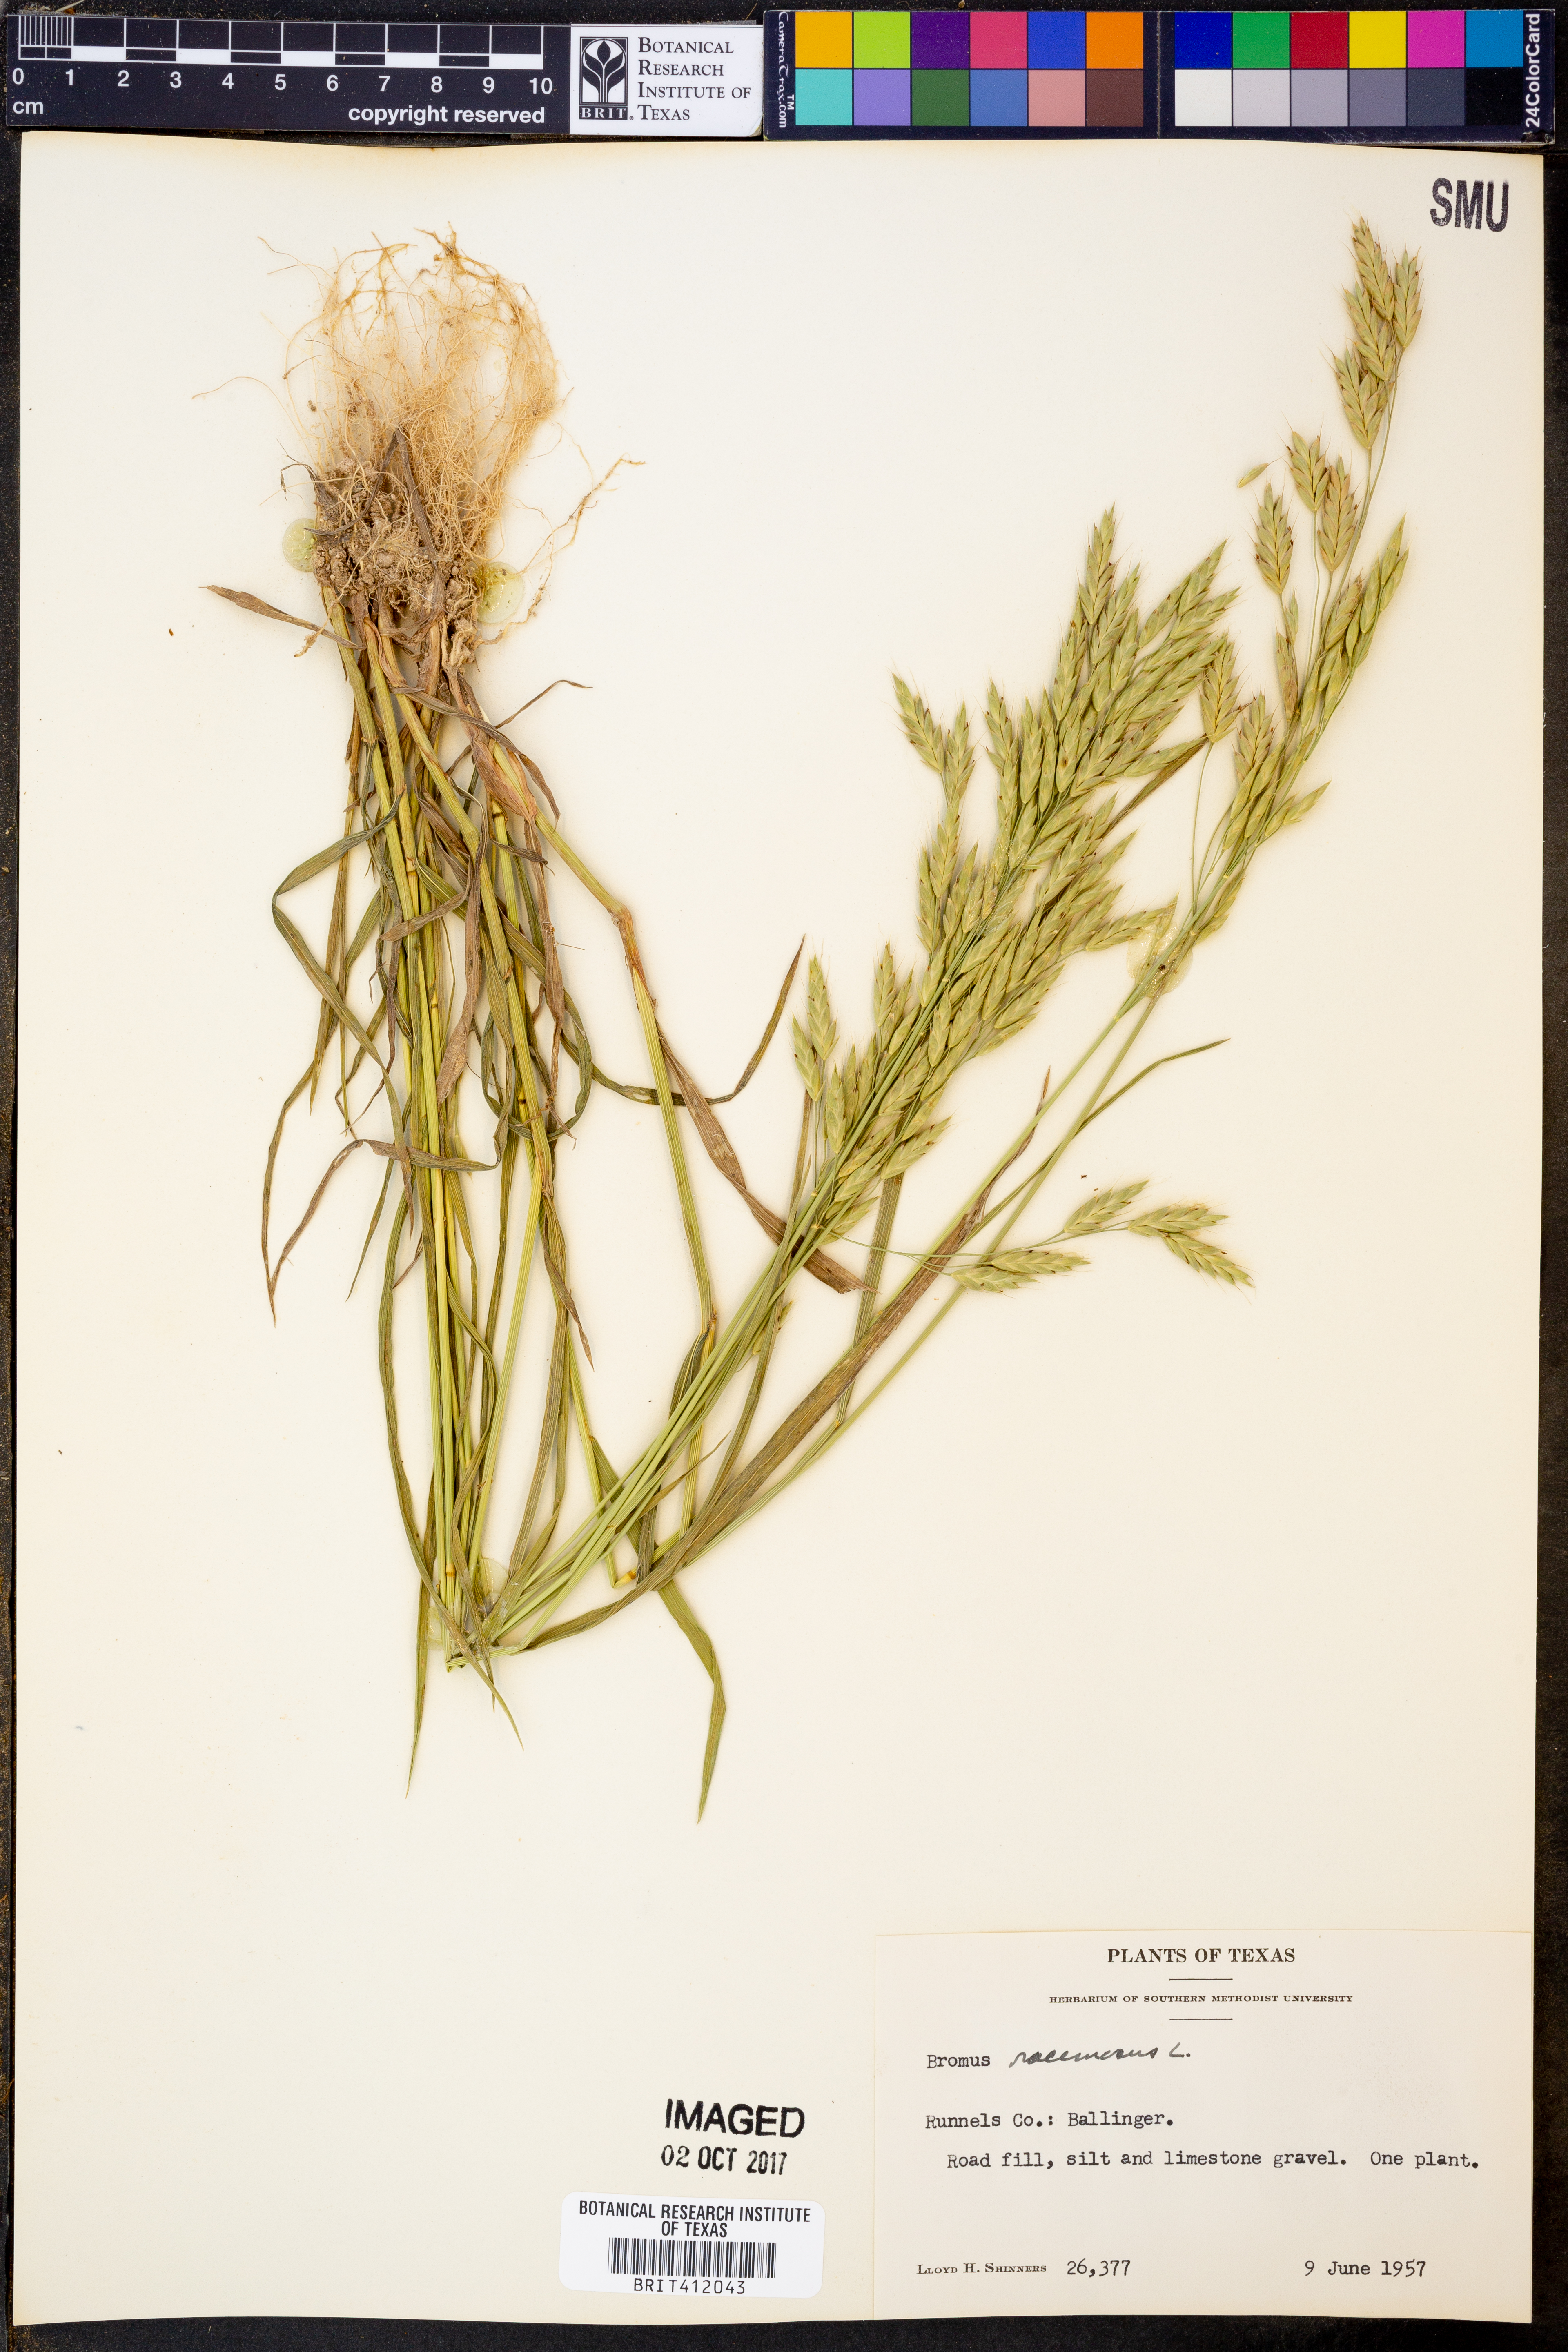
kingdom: Plantae
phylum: Tracheophyta
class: Liliopsida
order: Poales
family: Poaceae
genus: Bromus
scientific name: Bromus racemosus
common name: Bald brome
